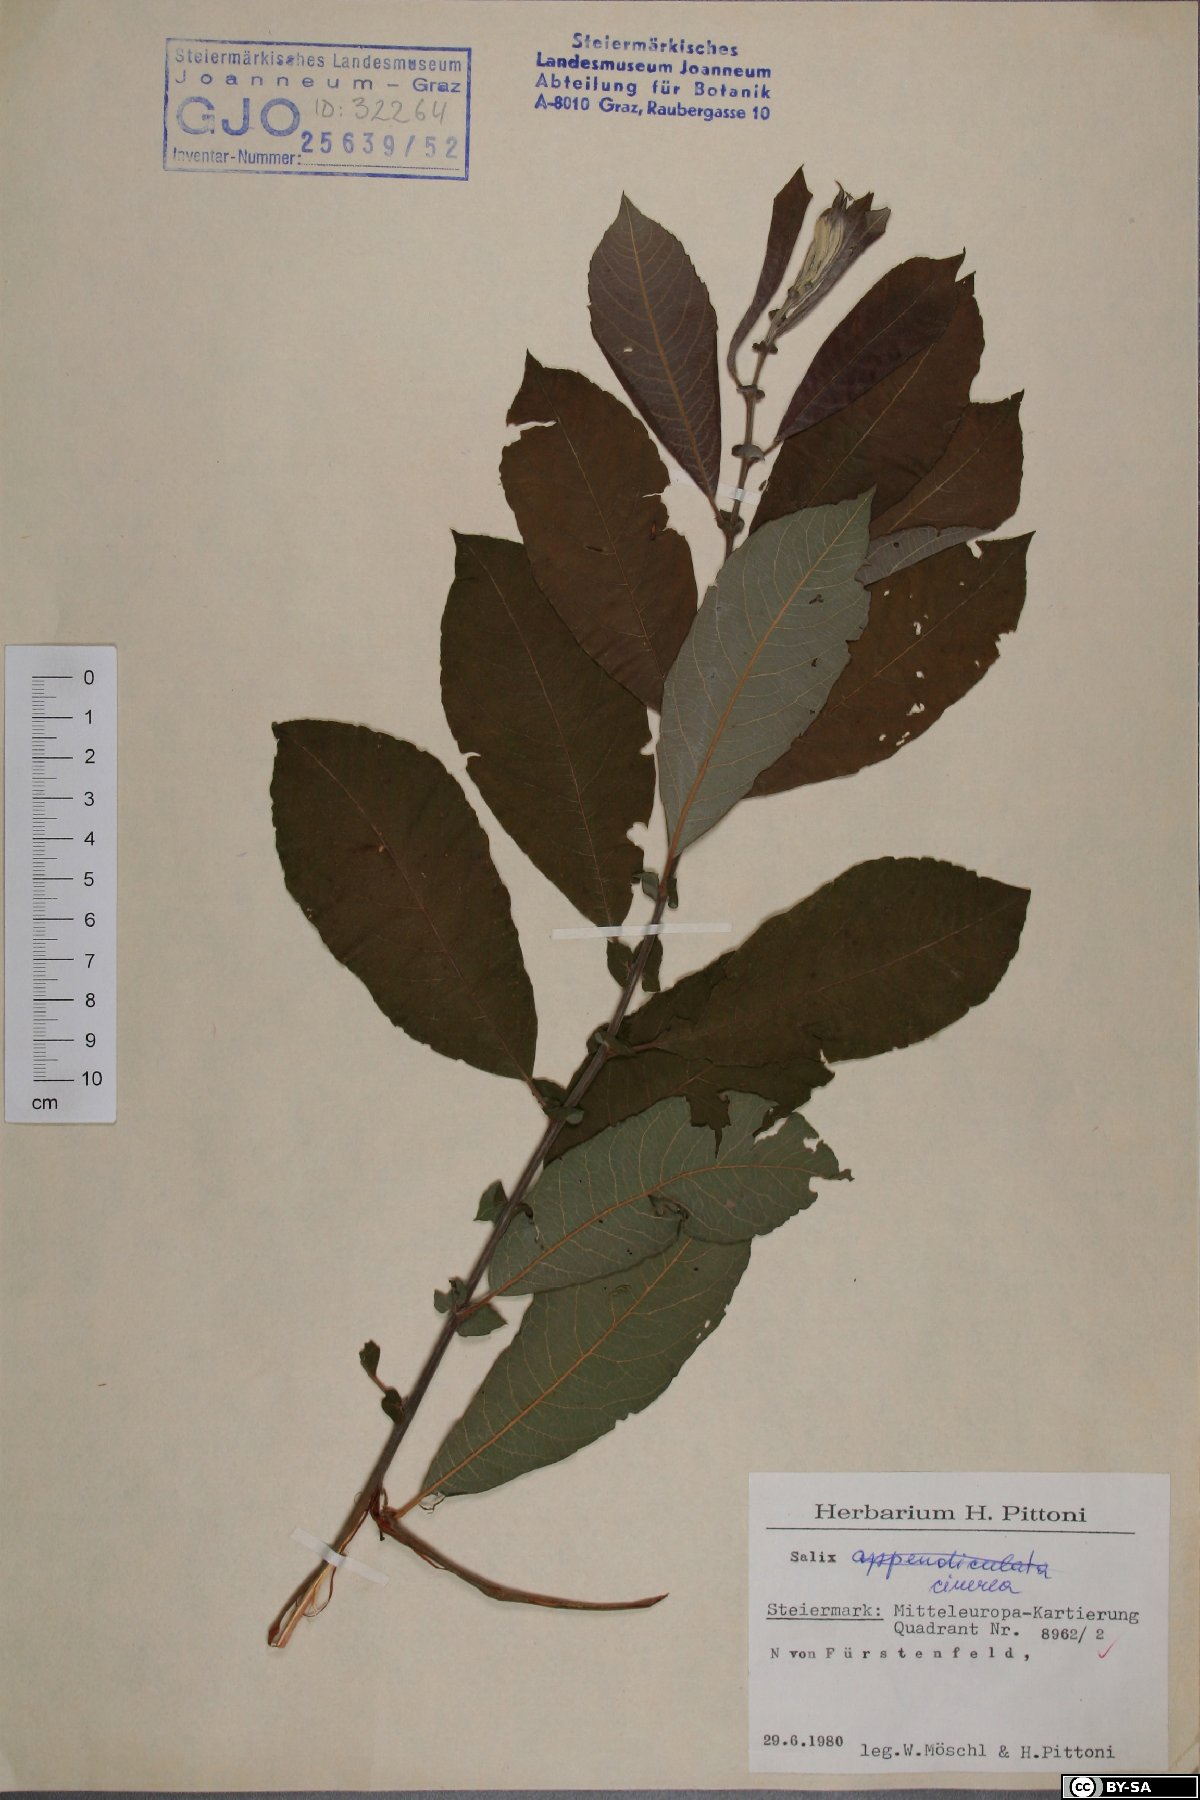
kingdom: Plantae
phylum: Tracheophyta
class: Magnoliopsida
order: Malpighiales
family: Salicaceae
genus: Salix
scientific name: Salix cinerea
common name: Common sallow
